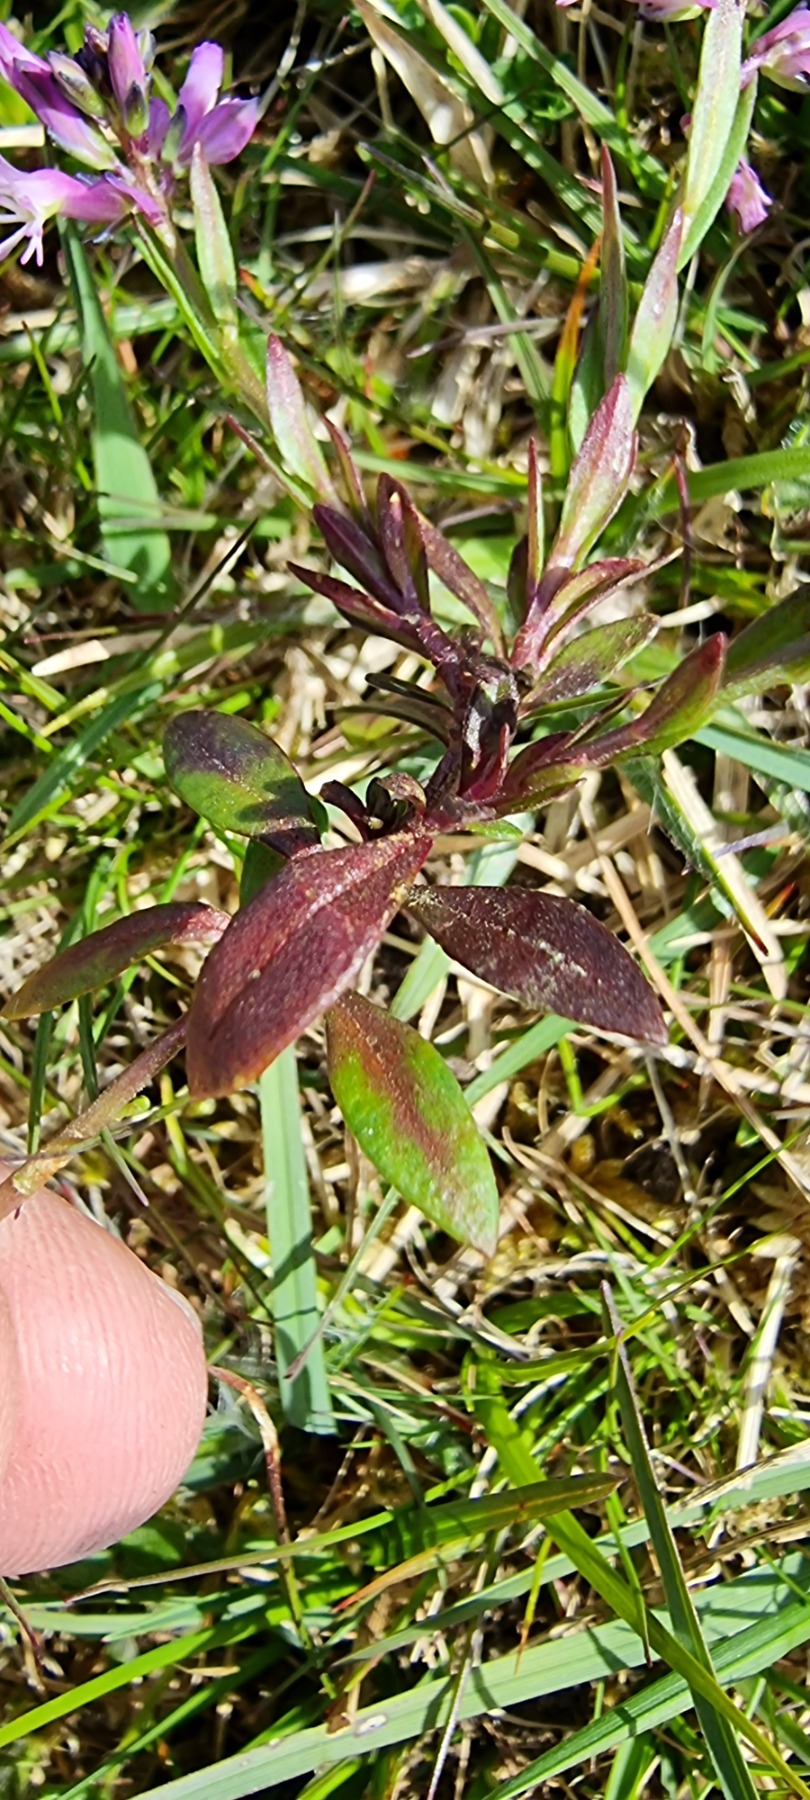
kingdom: Plantae
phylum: Tracheophyta
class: Magnoliopsida
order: Fabales
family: Polygalaceae
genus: Polygala
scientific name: Polygala vulgaris
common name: Almindelig mælkeurt
